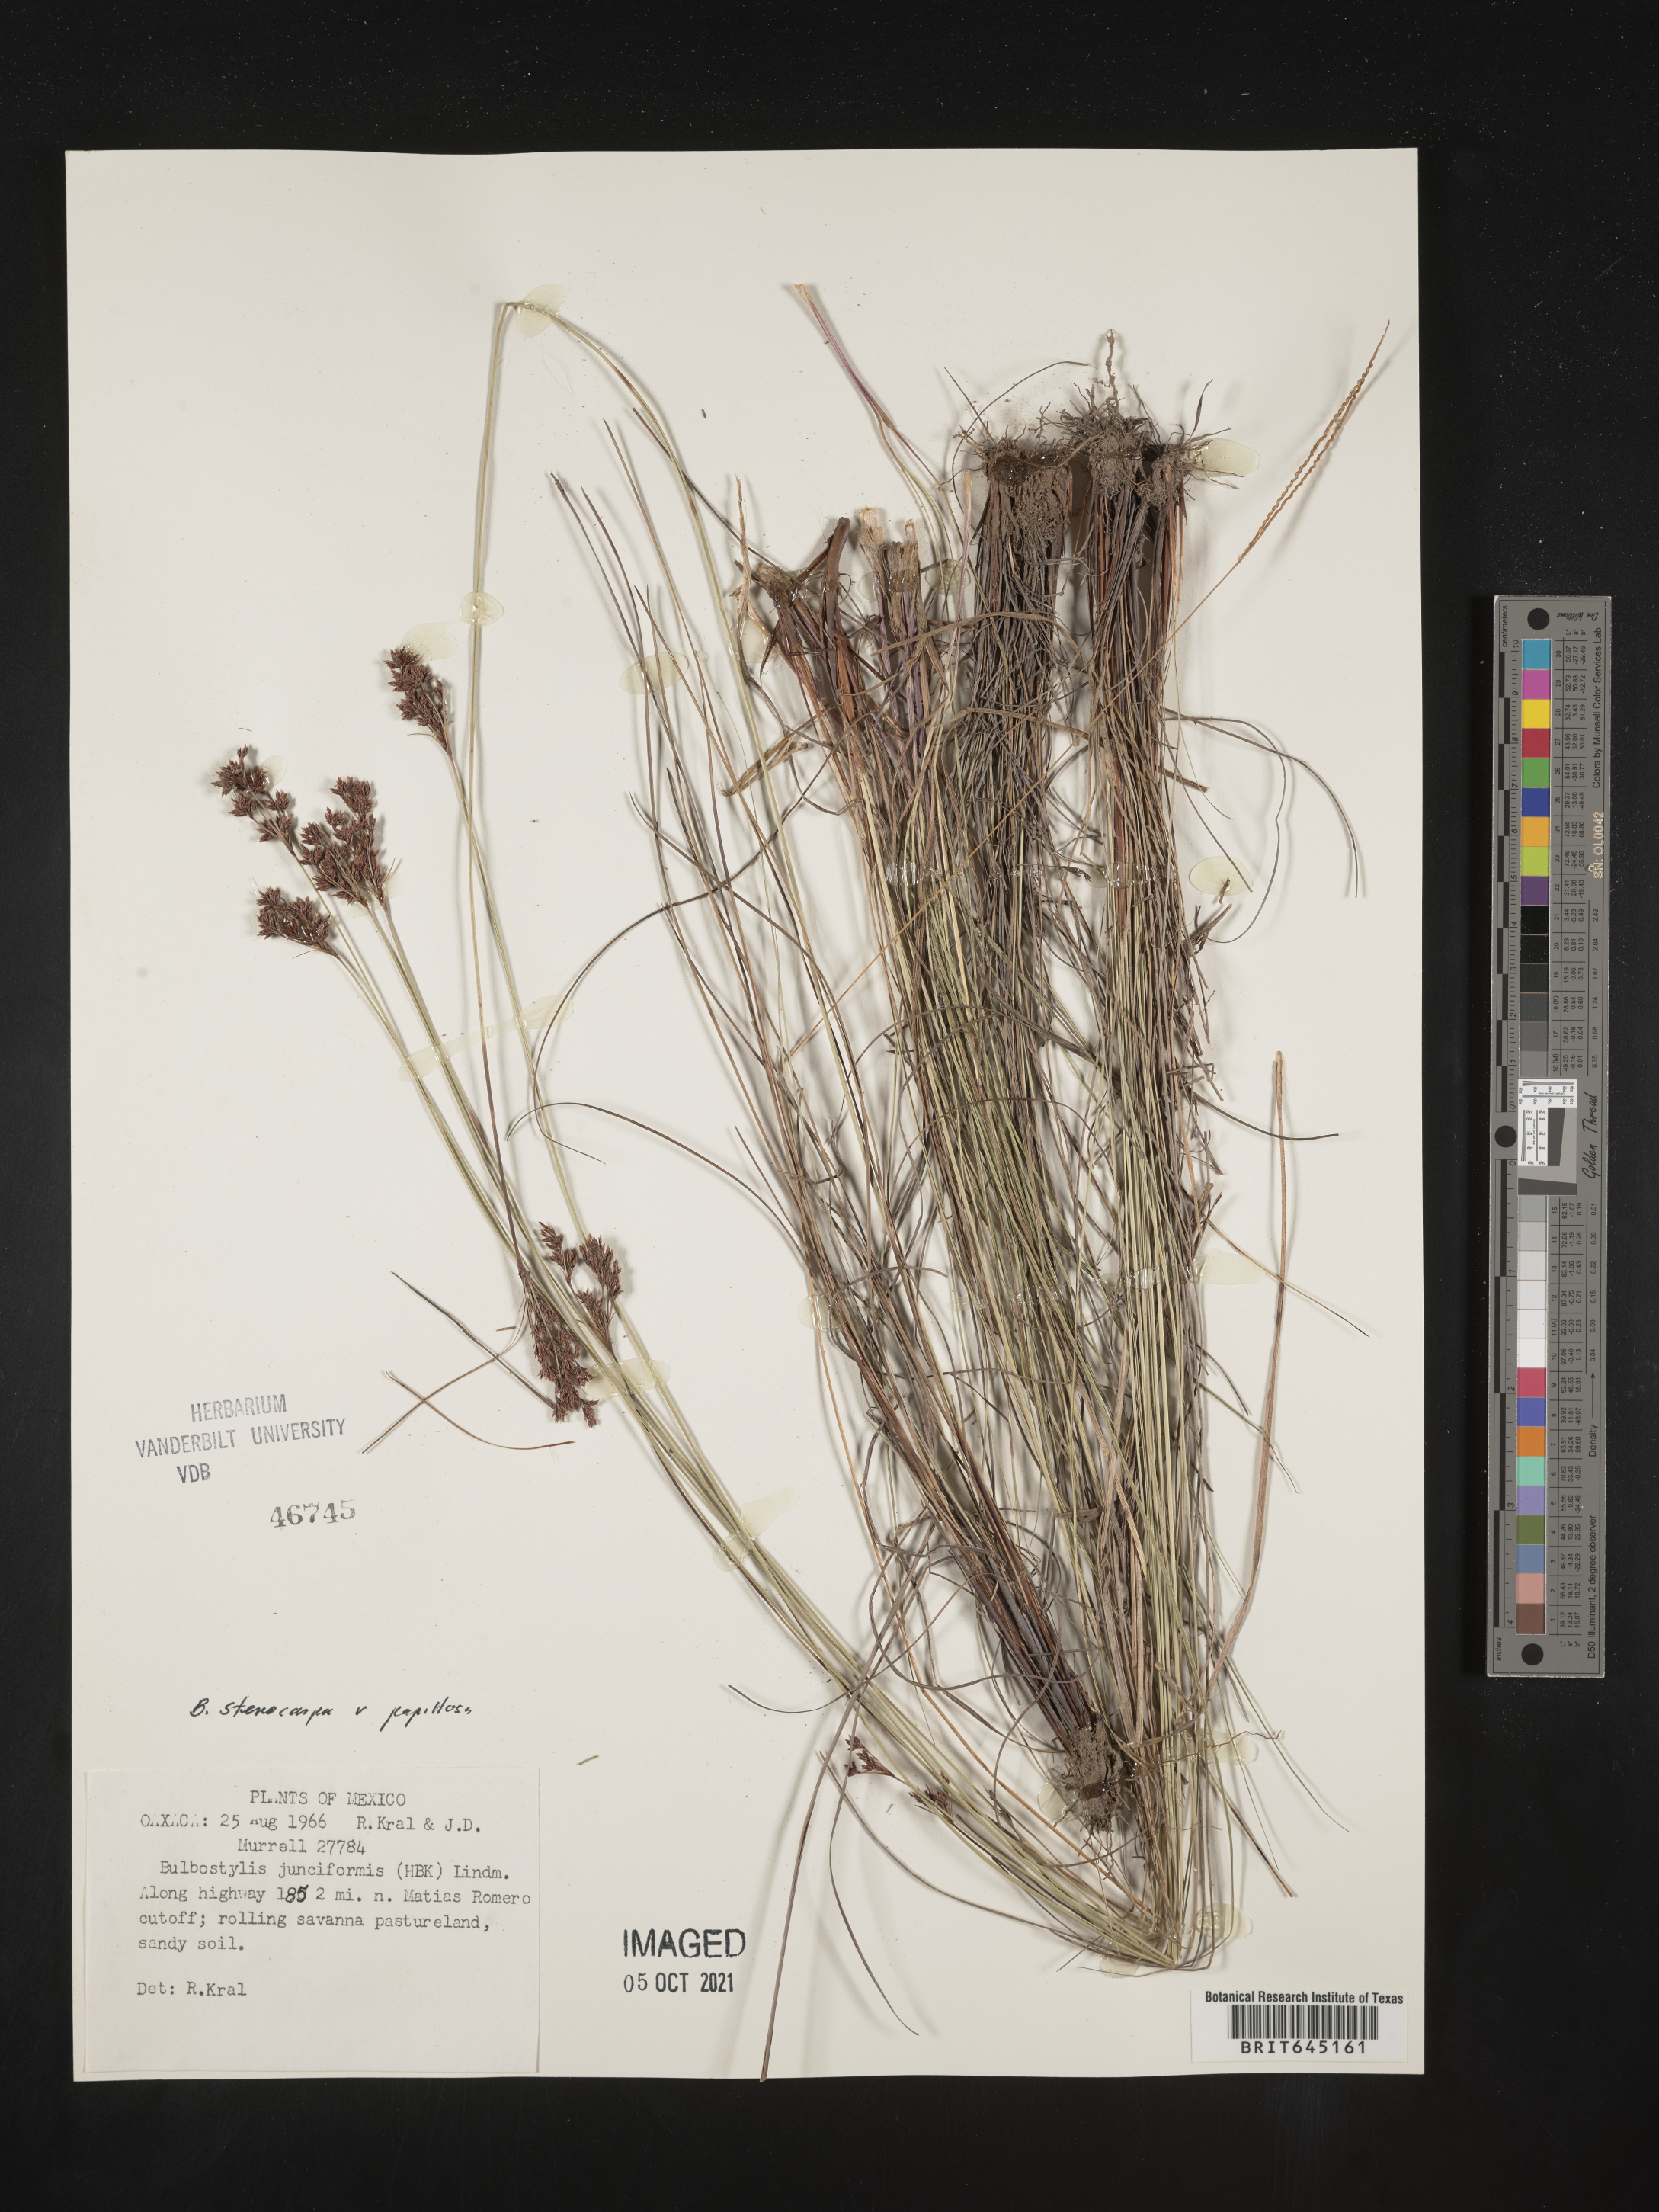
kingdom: Plantae
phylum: Tracheophyta
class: Liliopsida
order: Poales
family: Cyperaceae
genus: Bulbostylis
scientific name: Bulbostylis stenocarpa
